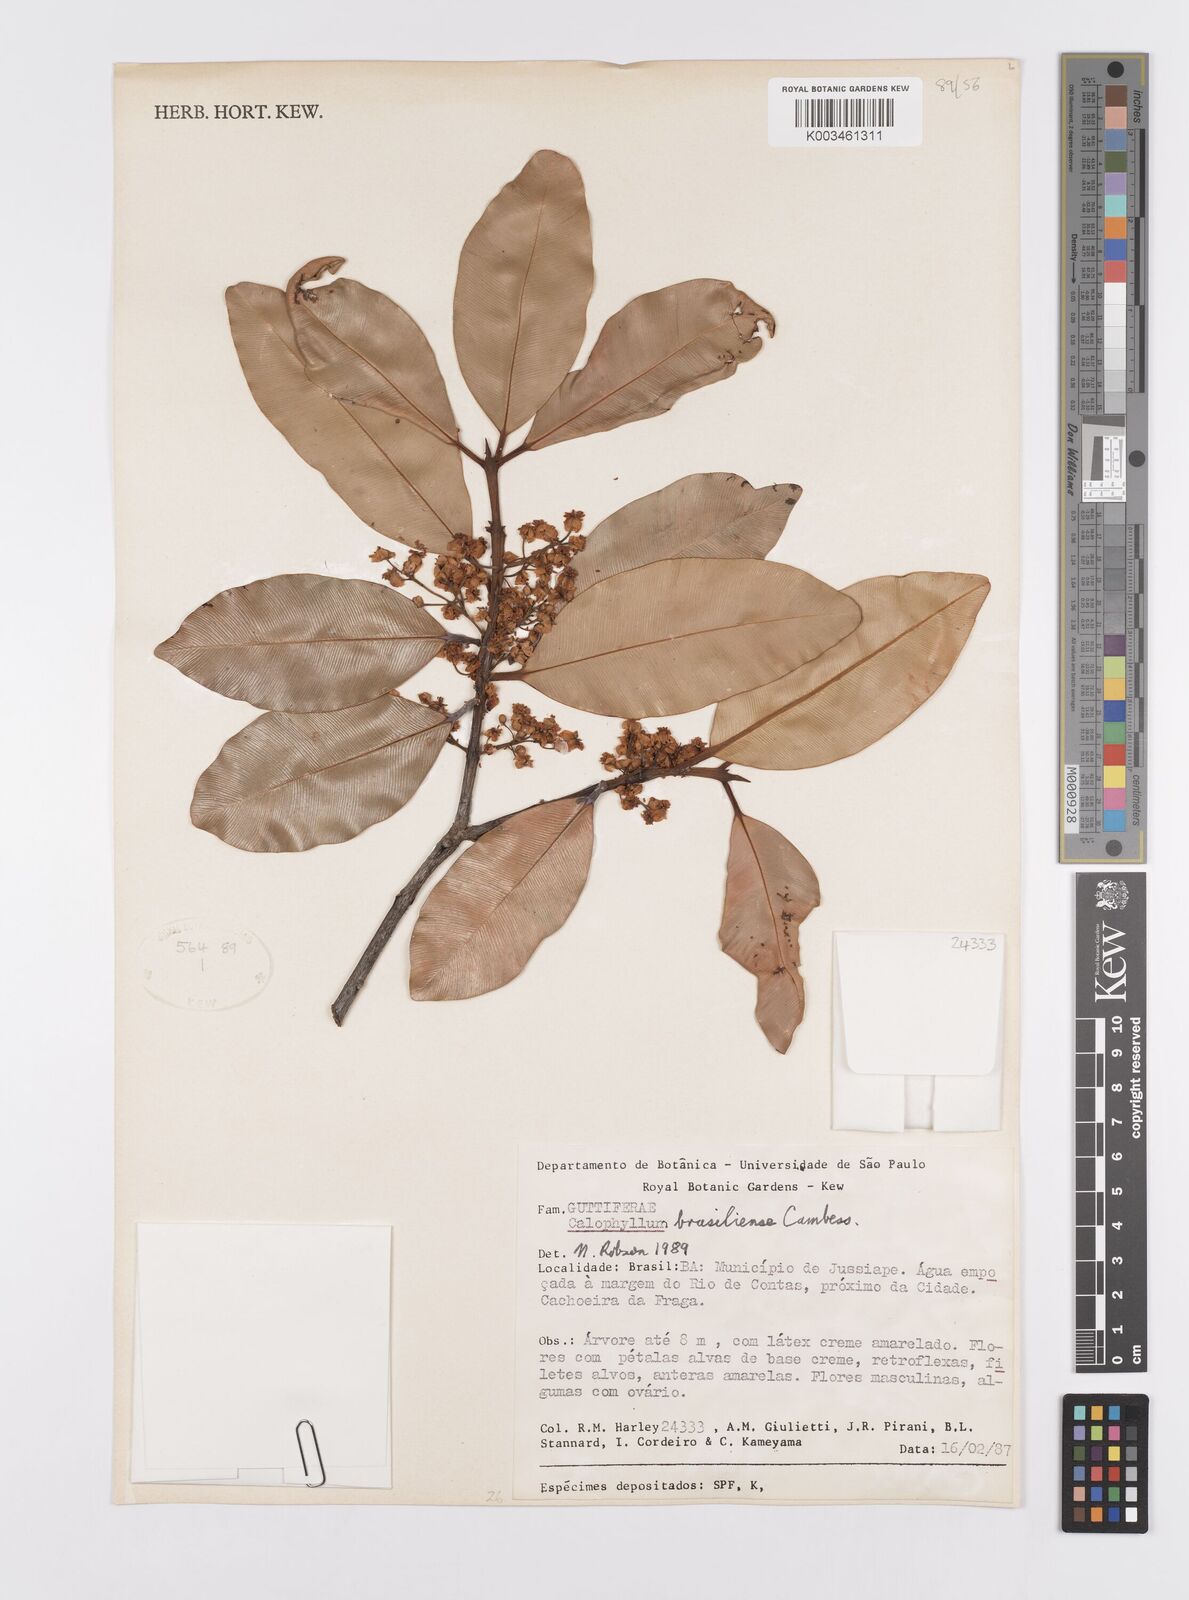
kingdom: Plantae
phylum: Tracheophyta
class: Magnoliopsida
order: Malpighiales
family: Calophyllaceae
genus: Calophyllum
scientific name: Calophyllum brasiliense
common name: Santa maria
